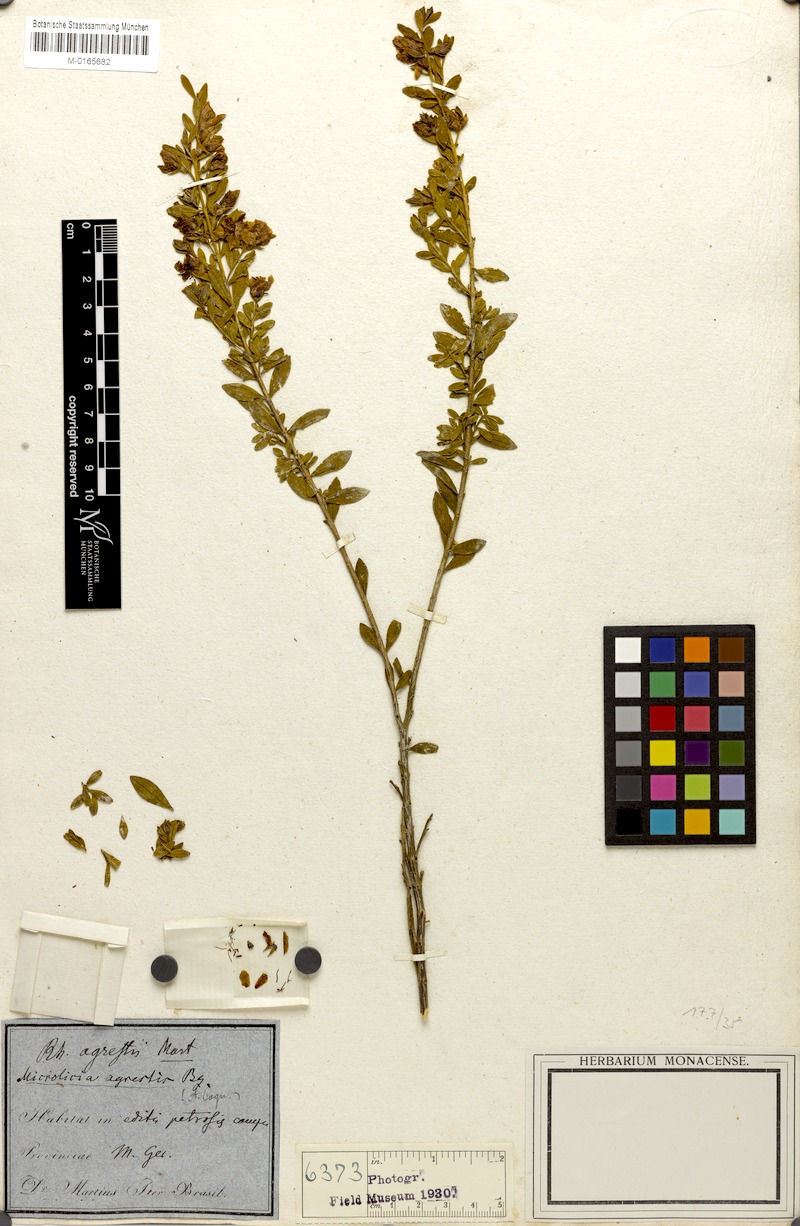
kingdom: Plantae
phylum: Tracheophyta
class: Magnoliopsida
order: Myrtales
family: Melastomataceae
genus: Microlicia
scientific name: Microlicia agrestis
